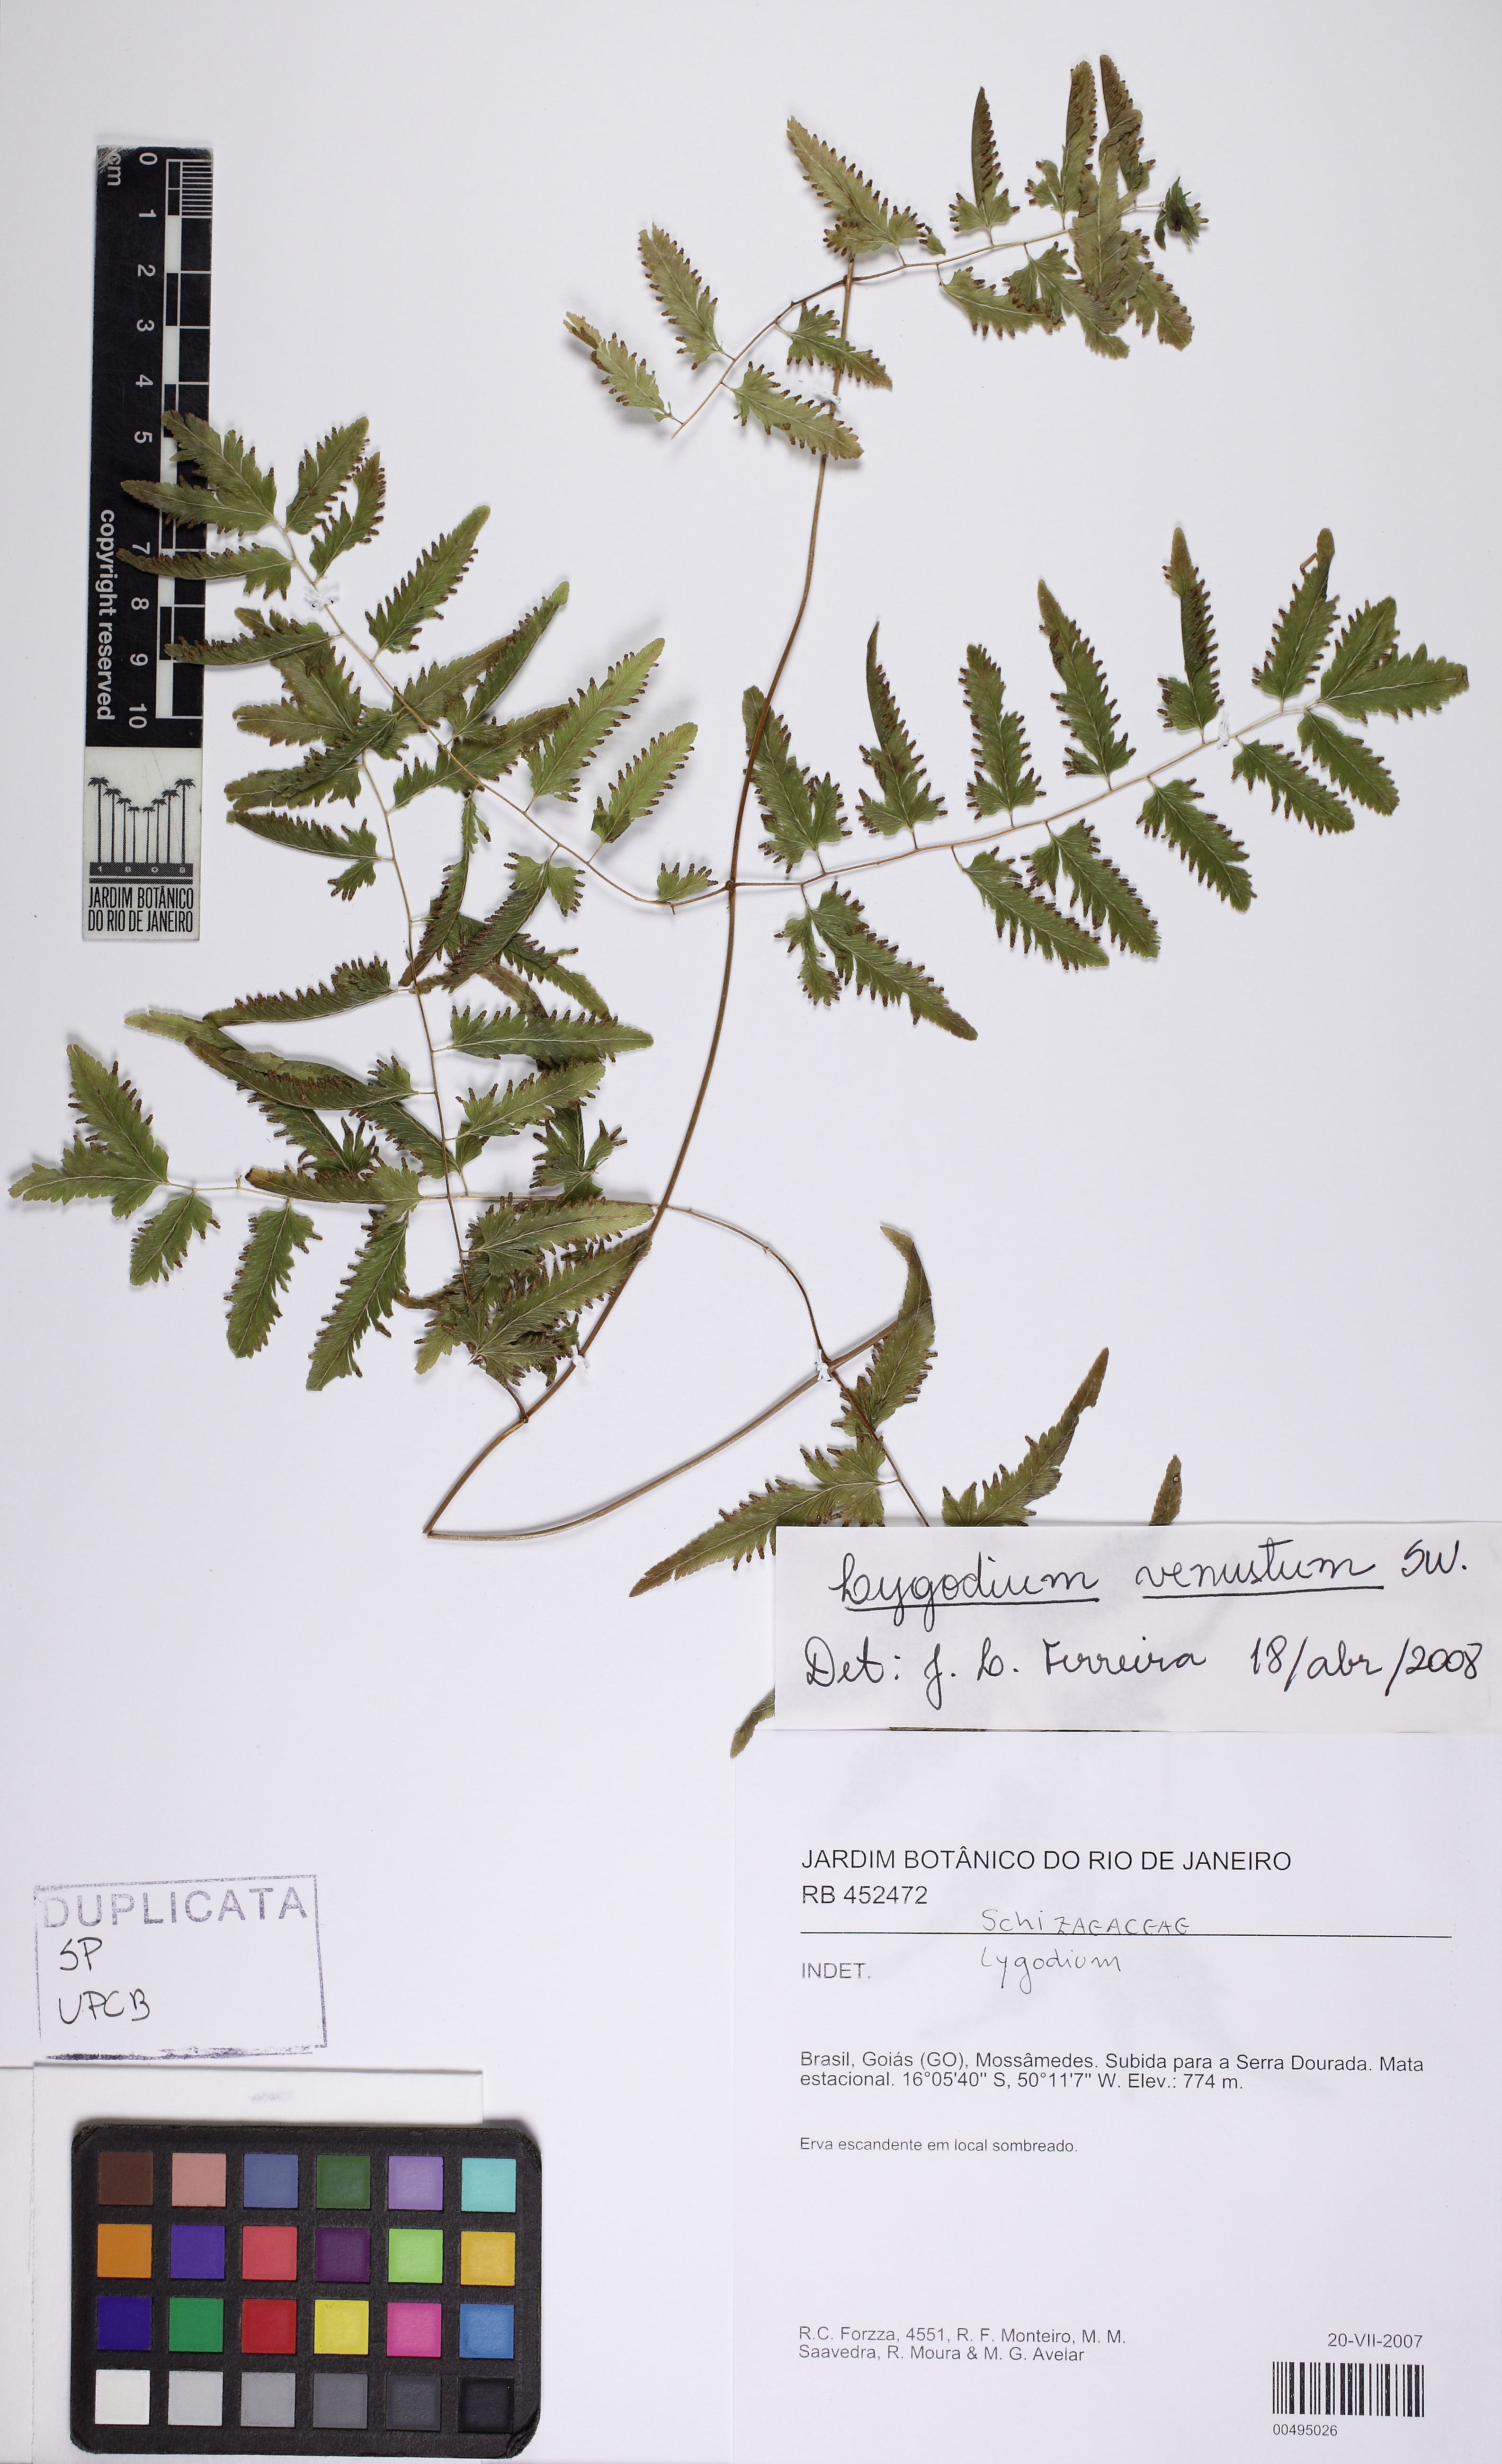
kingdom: Plantae
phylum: Tracheophyta
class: Polypodiopsida
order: Schizaeales
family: Lygodiaceae
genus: Lygodium
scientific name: Lygodium venustum
